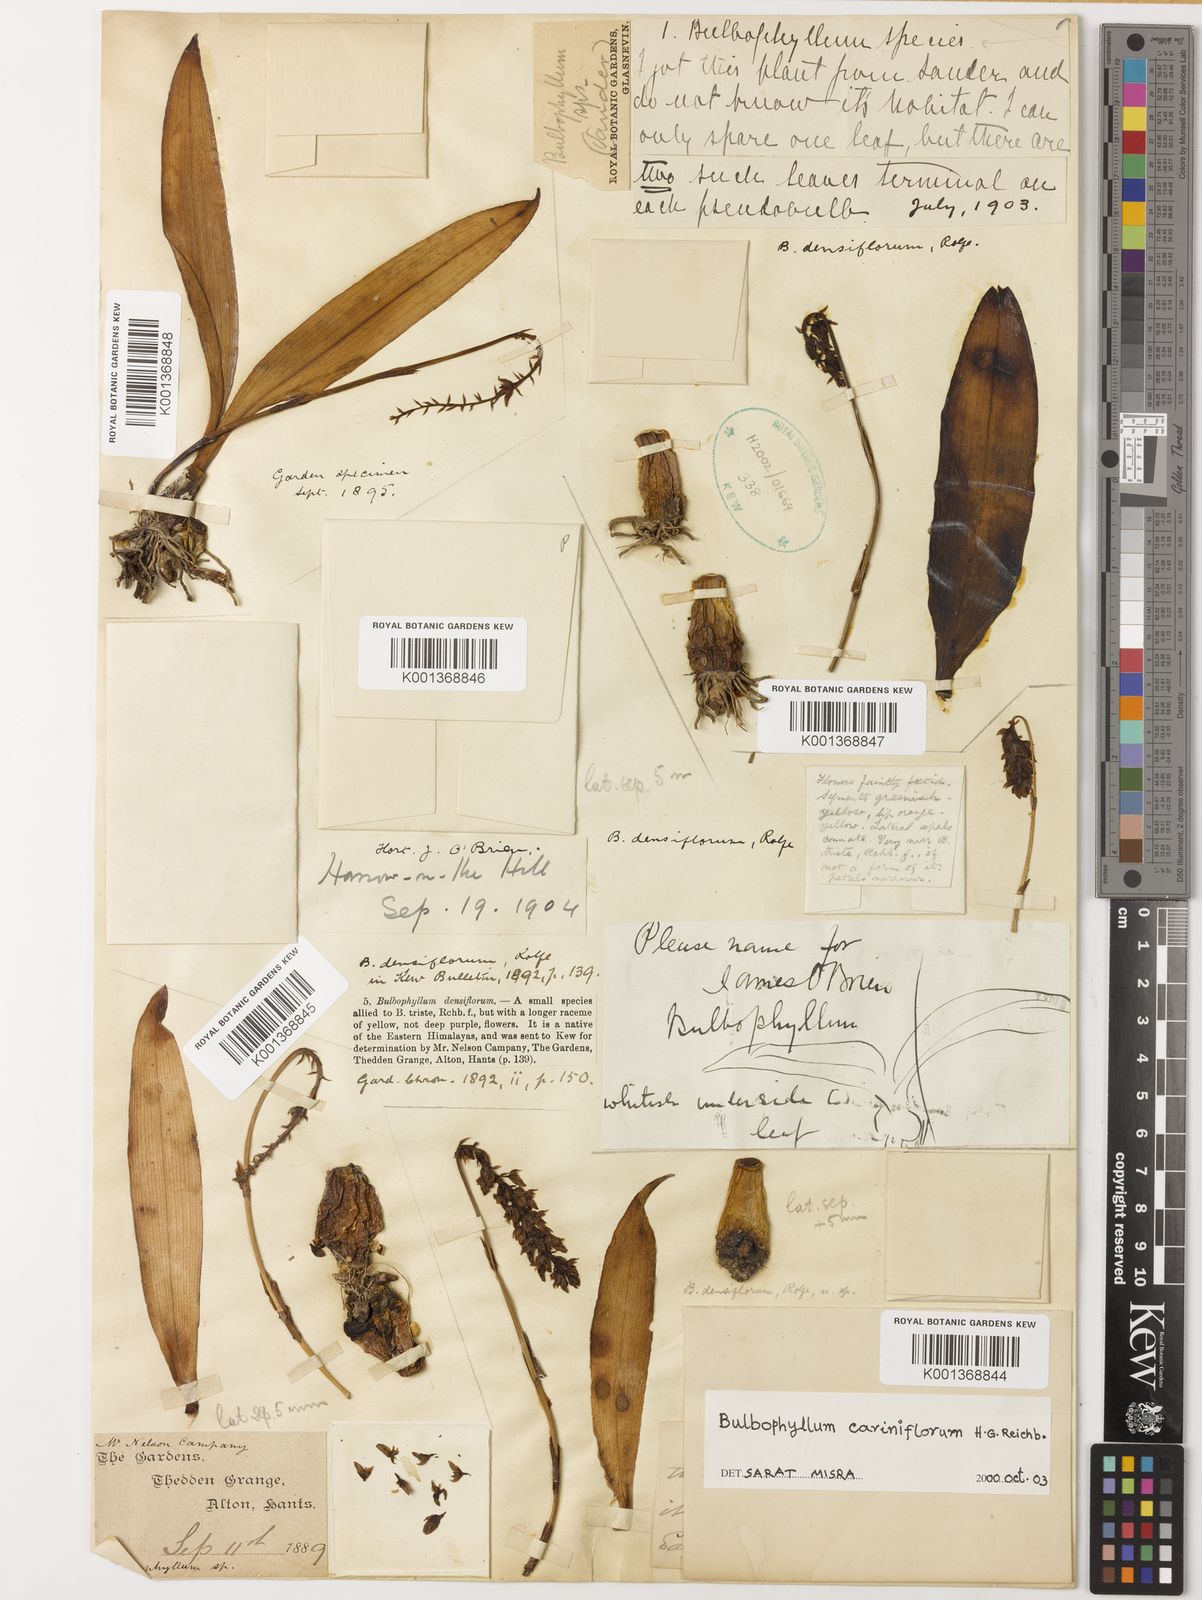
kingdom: Plantae
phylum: Tracheophyta
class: Liliopsida
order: Asparagales
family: Orchidaceae
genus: Bulbophyllum
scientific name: Bulbophyllum cariniflorum
